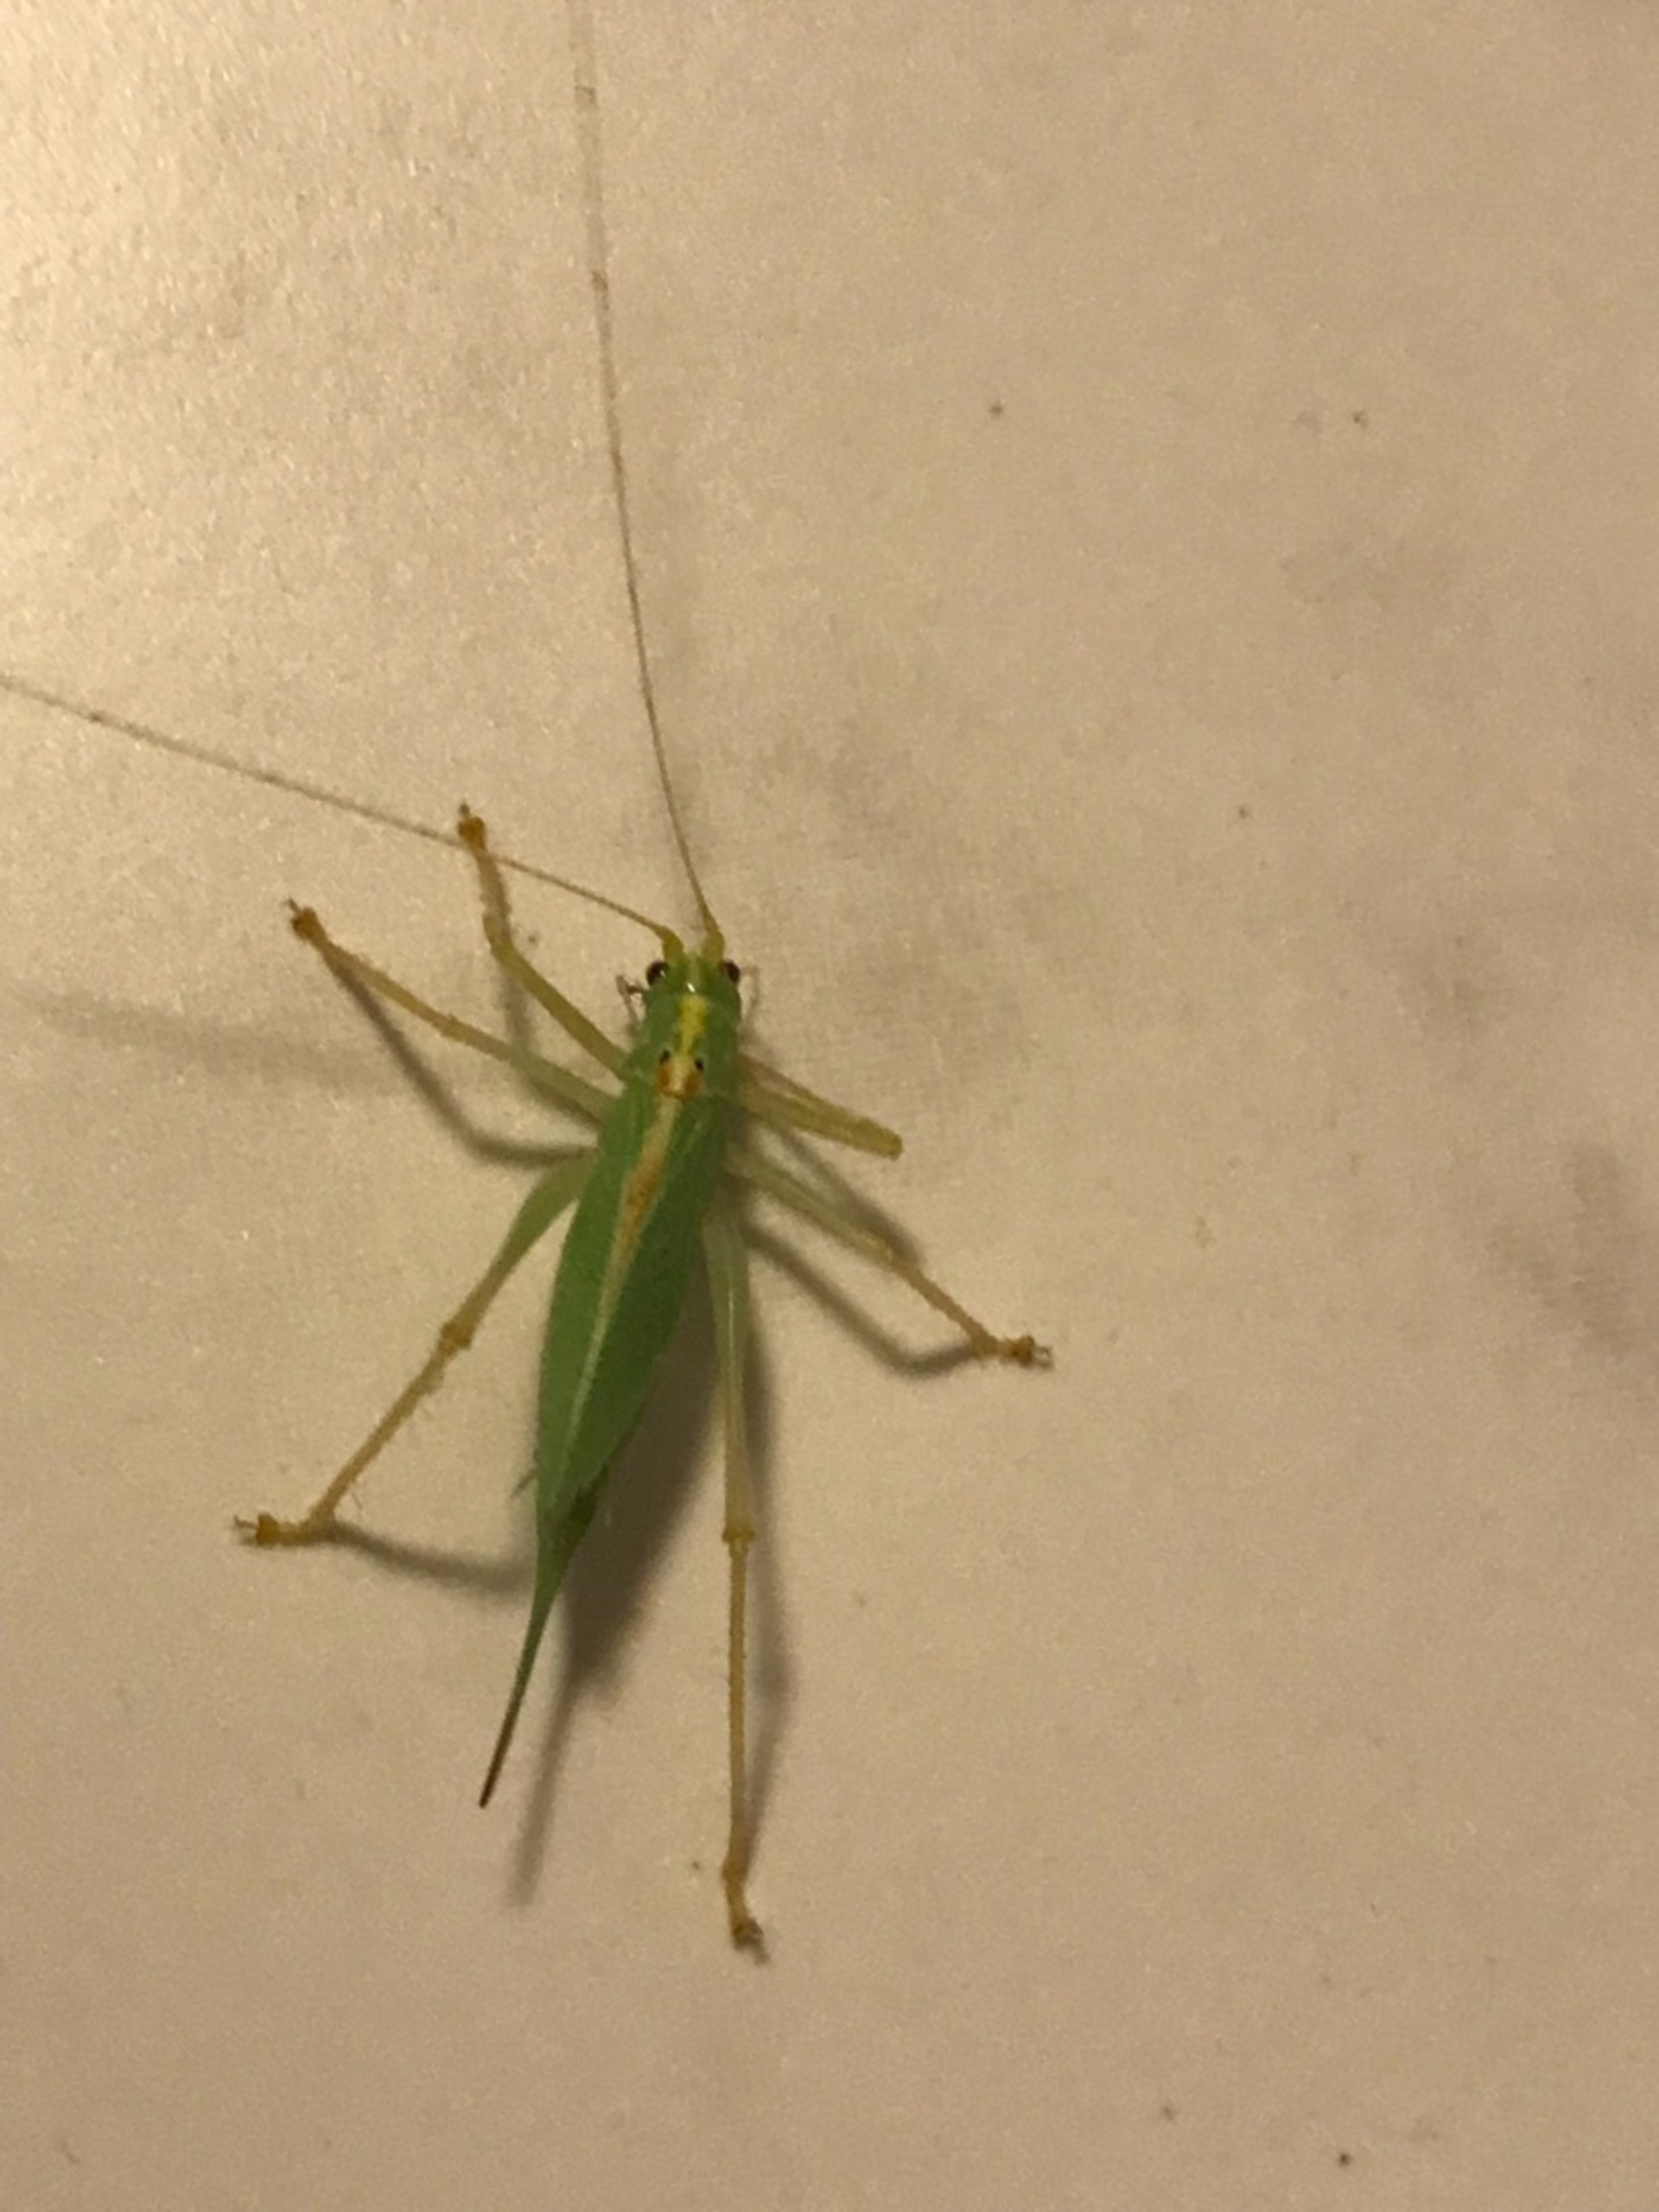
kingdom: Animalia
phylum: Arthropoda
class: Insecta
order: Orthoptera
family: Tettigoniidae
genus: Meconema
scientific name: Meconema thalassinum
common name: Egegræshoppe
